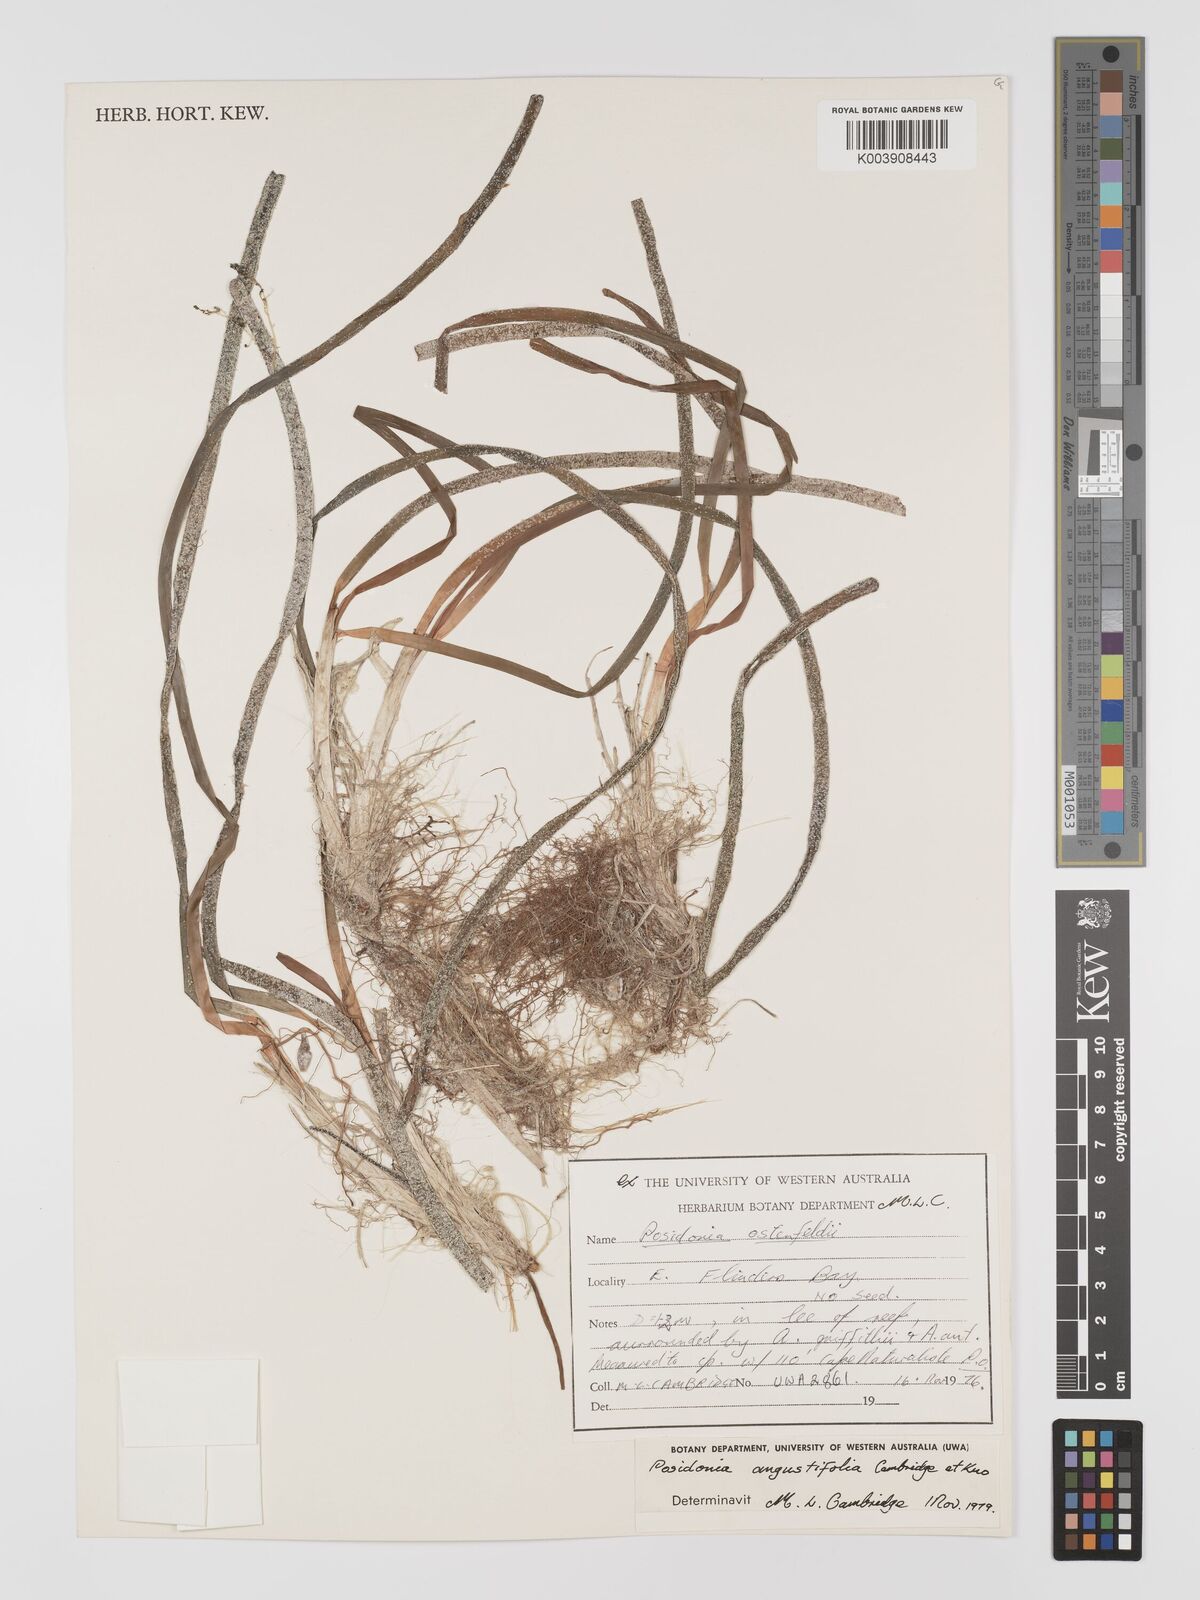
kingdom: Plantae
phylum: Tracheophyta
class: Liliopsida
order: Alismatales
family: Posidoniaceae
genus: Posidonia
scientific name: Posidonia angustifolia
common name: Species code: pg
